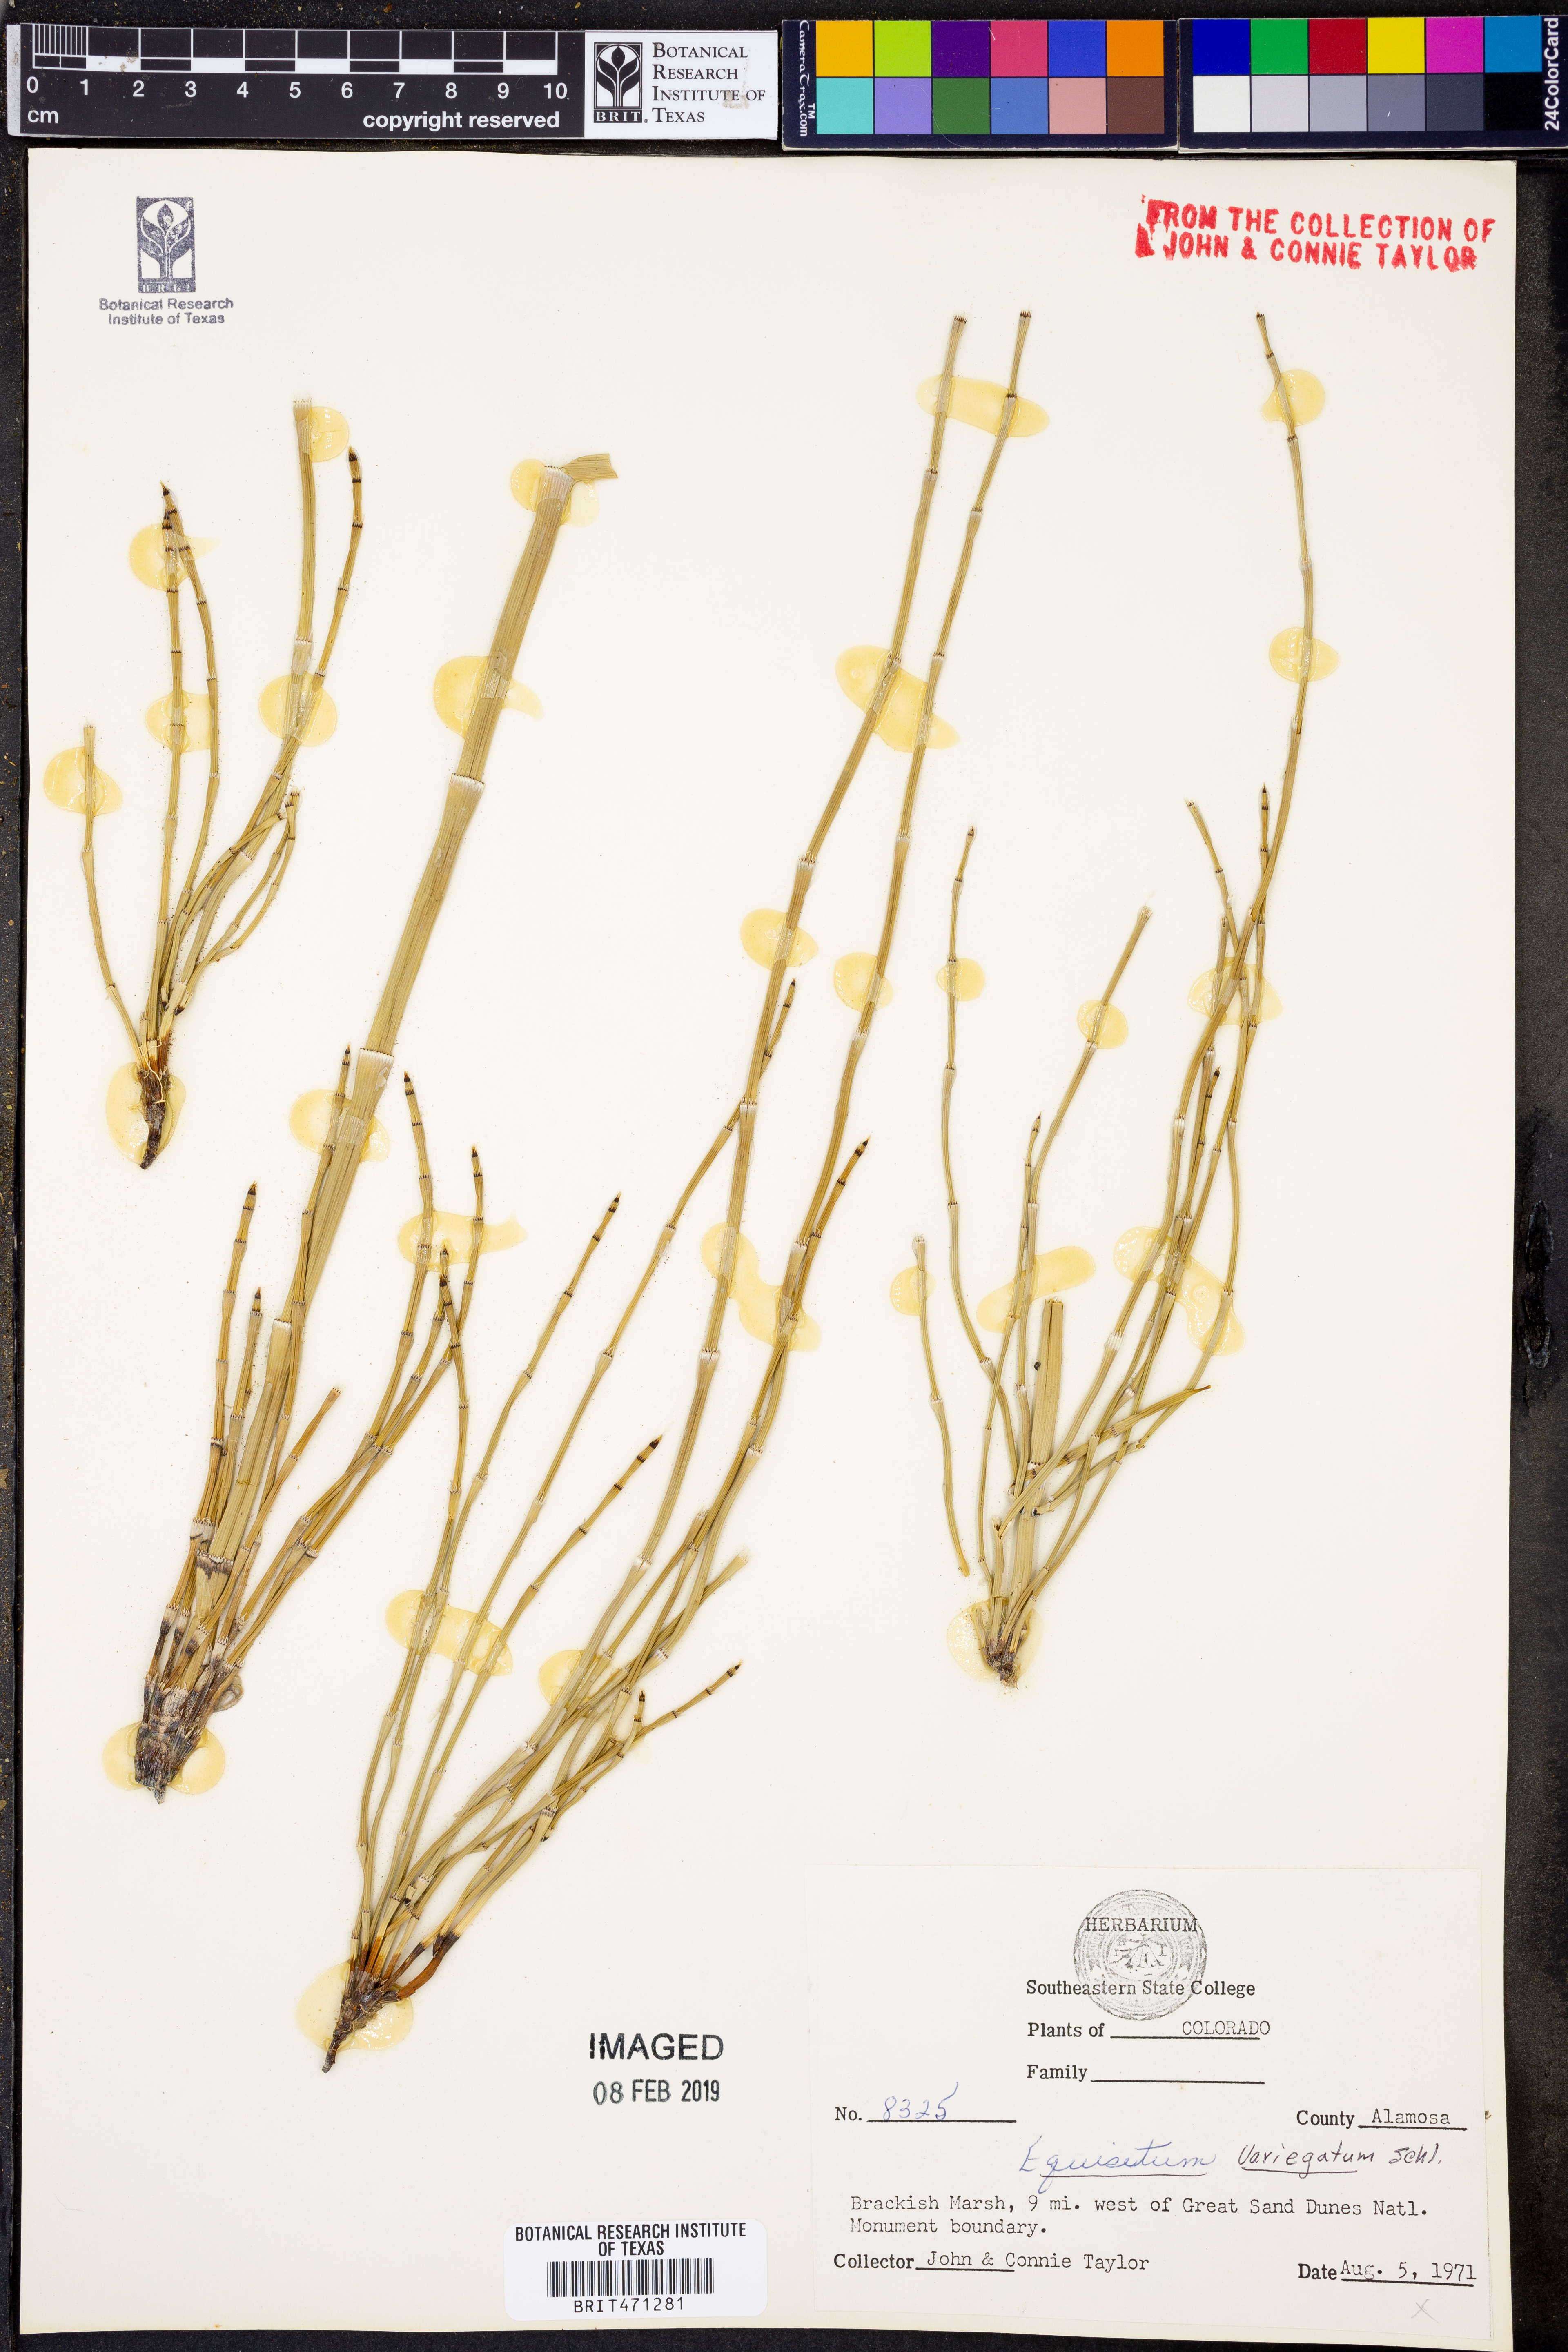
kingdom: Plantae
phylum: Tracheophyta
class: Polypodiopsida
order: Equisetales
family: Equisetaceae
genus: Equisetum
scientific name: Equisetum variegatum
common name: Variegated horsetail
